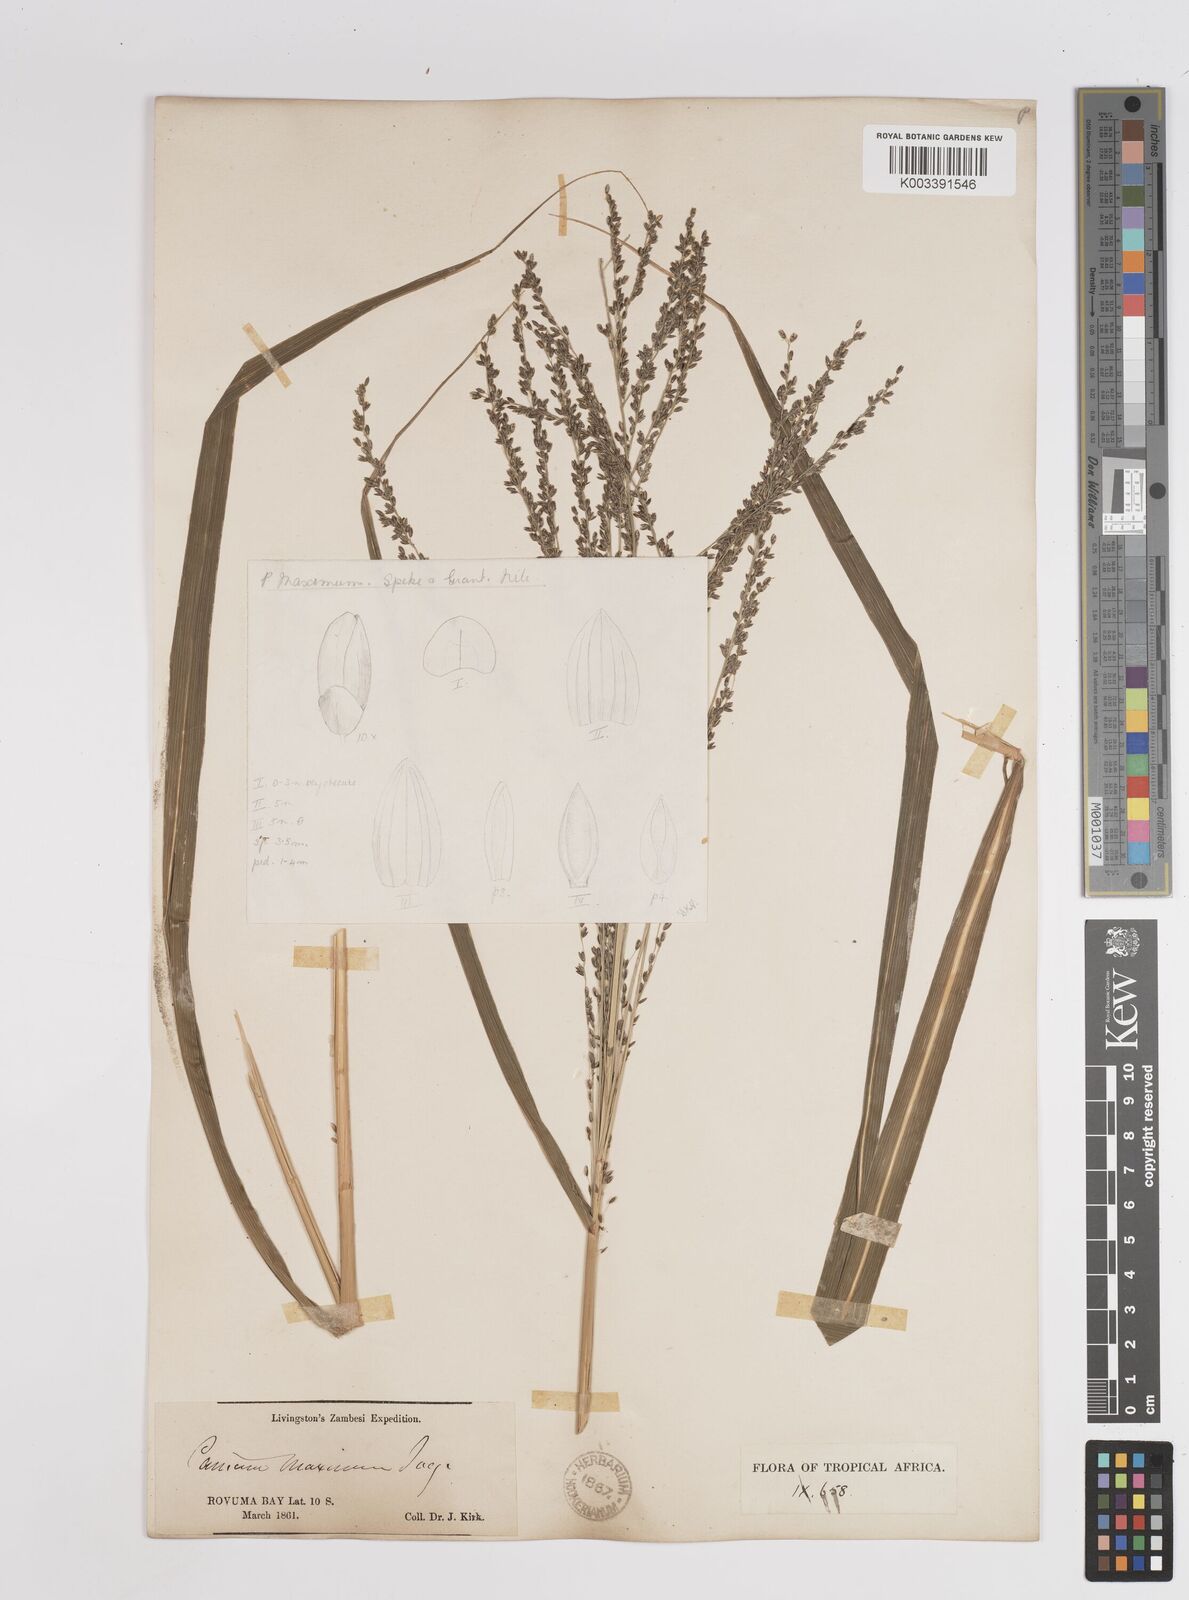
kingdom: Plantae
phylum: Tracheophyta
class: Liliopsida
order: Poales
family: Poaceae
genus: Megathyrsus
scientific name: Megathyrsus maximus
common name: Guineagrass
